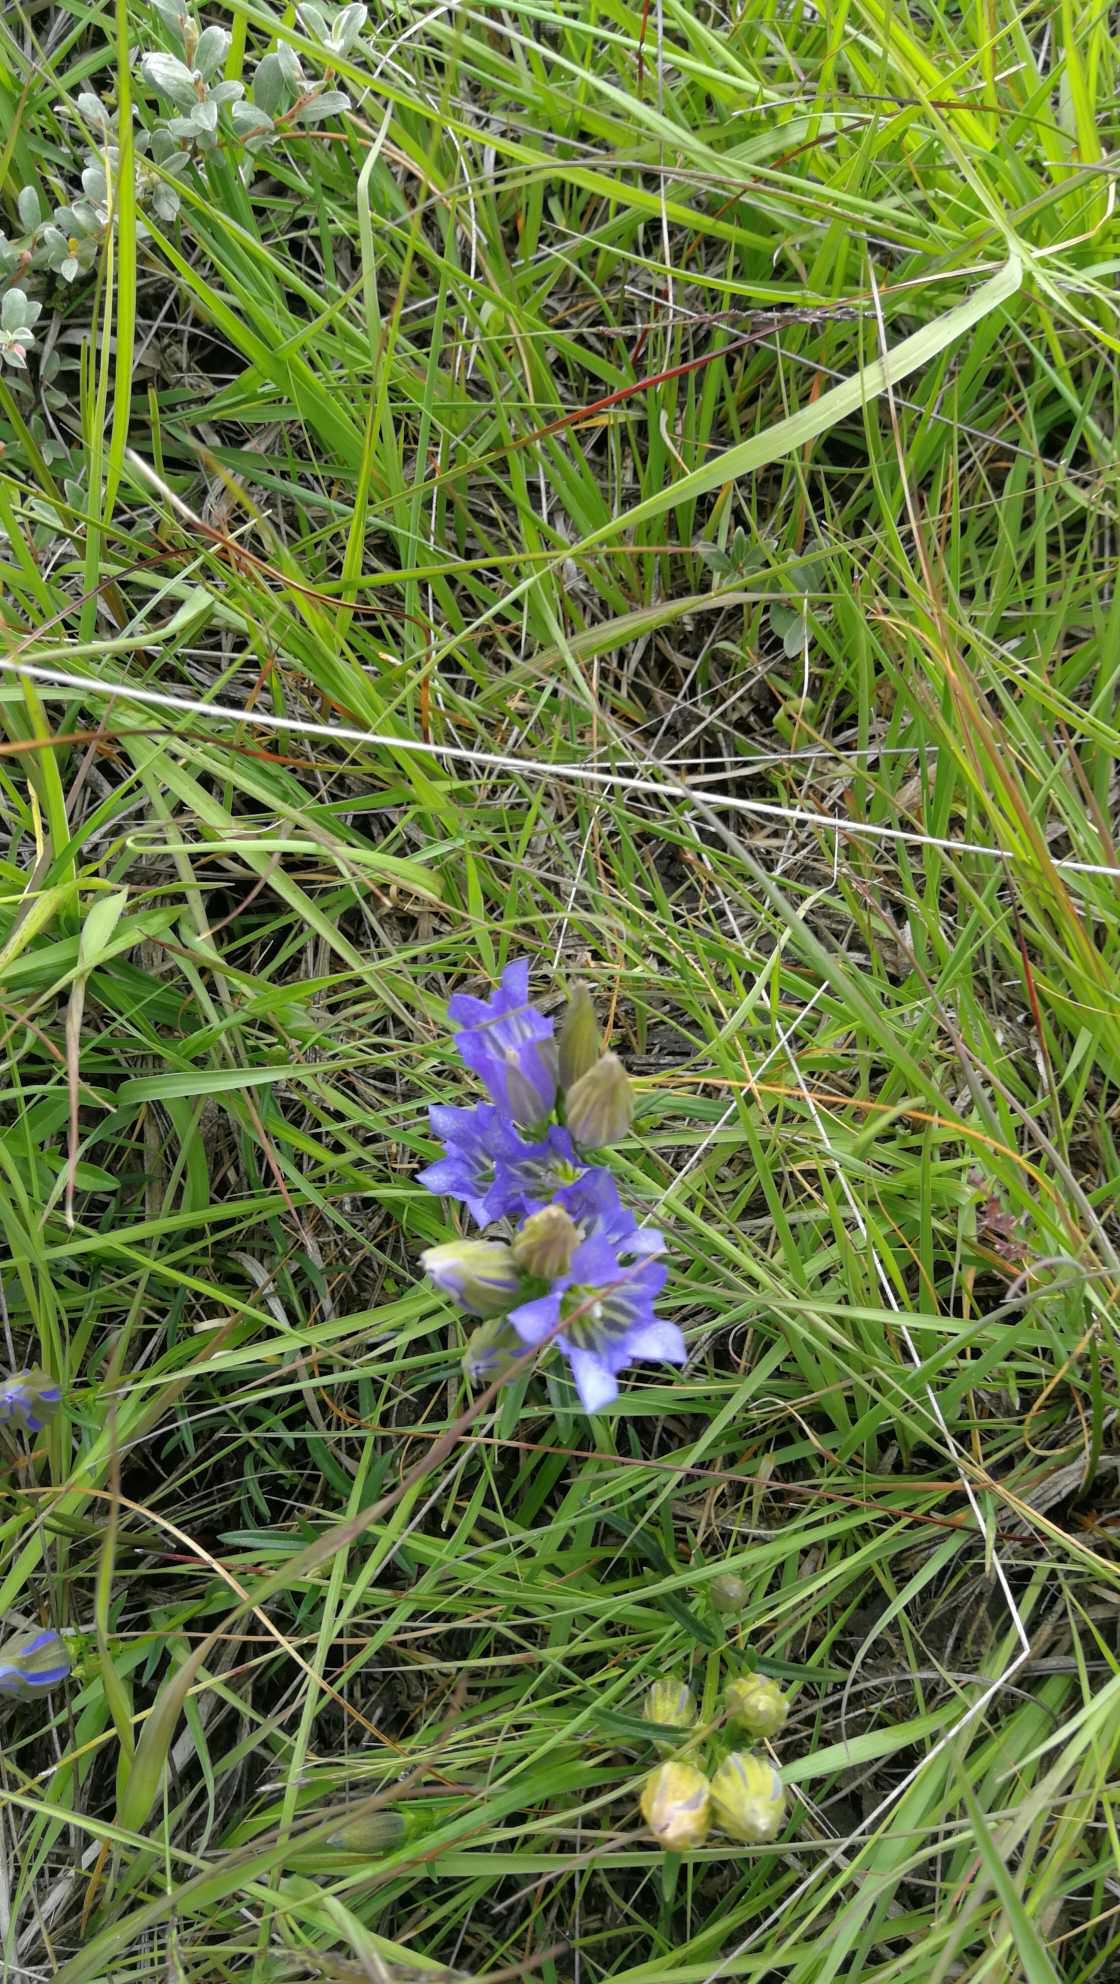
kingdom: Plantae
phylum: Tracheophyta
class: Magnoliopsida
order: Gentianales
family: Gentianaceae
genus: Gentiana
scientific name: Gentiana pneumonanthe
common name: Klokke-ensian
